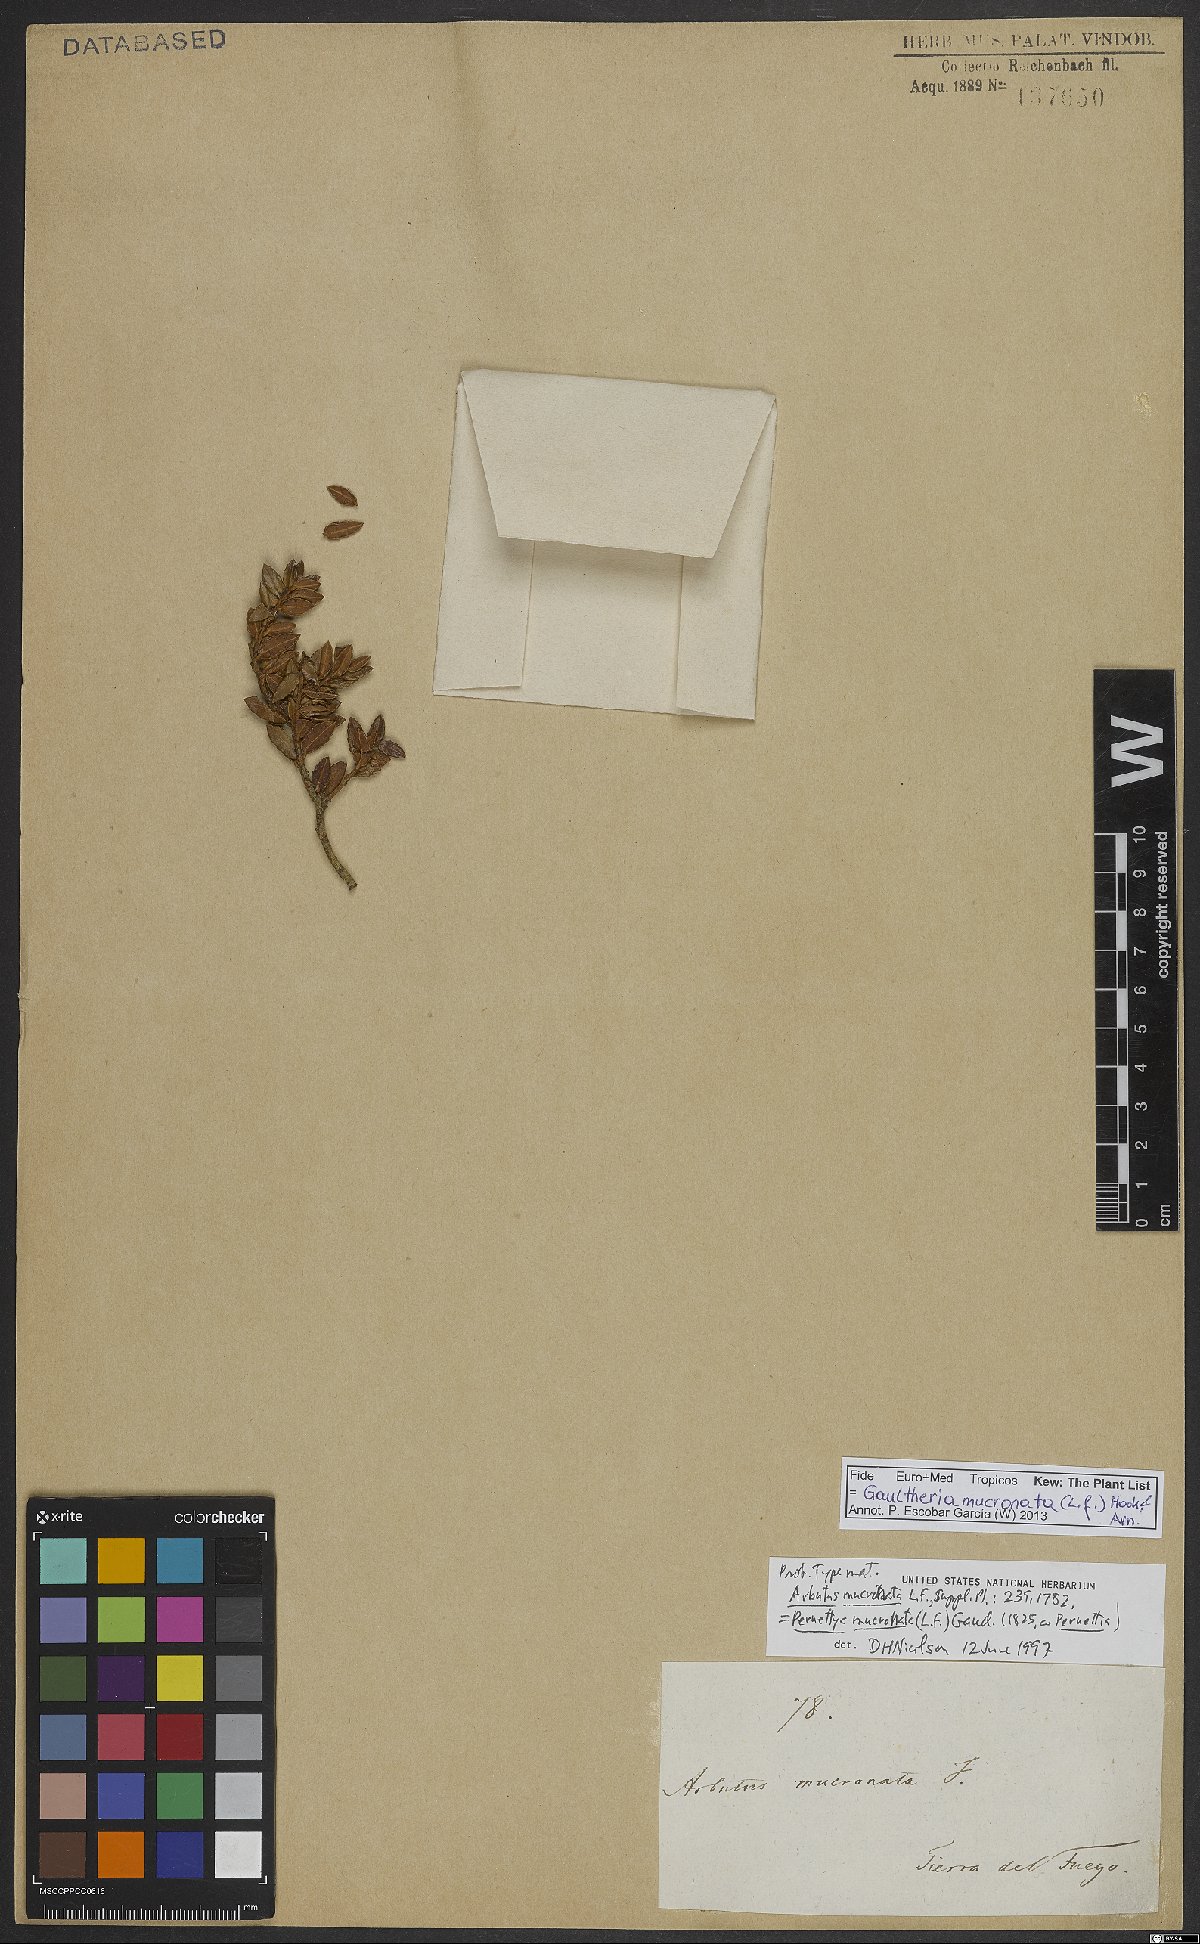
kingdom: Plantae
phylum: Tracheophyta
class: Magnoliopsida
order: Ericales
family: Ericaceae
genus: Gaultheria
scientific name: Gaultheria mucronata
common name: Prickly heath
